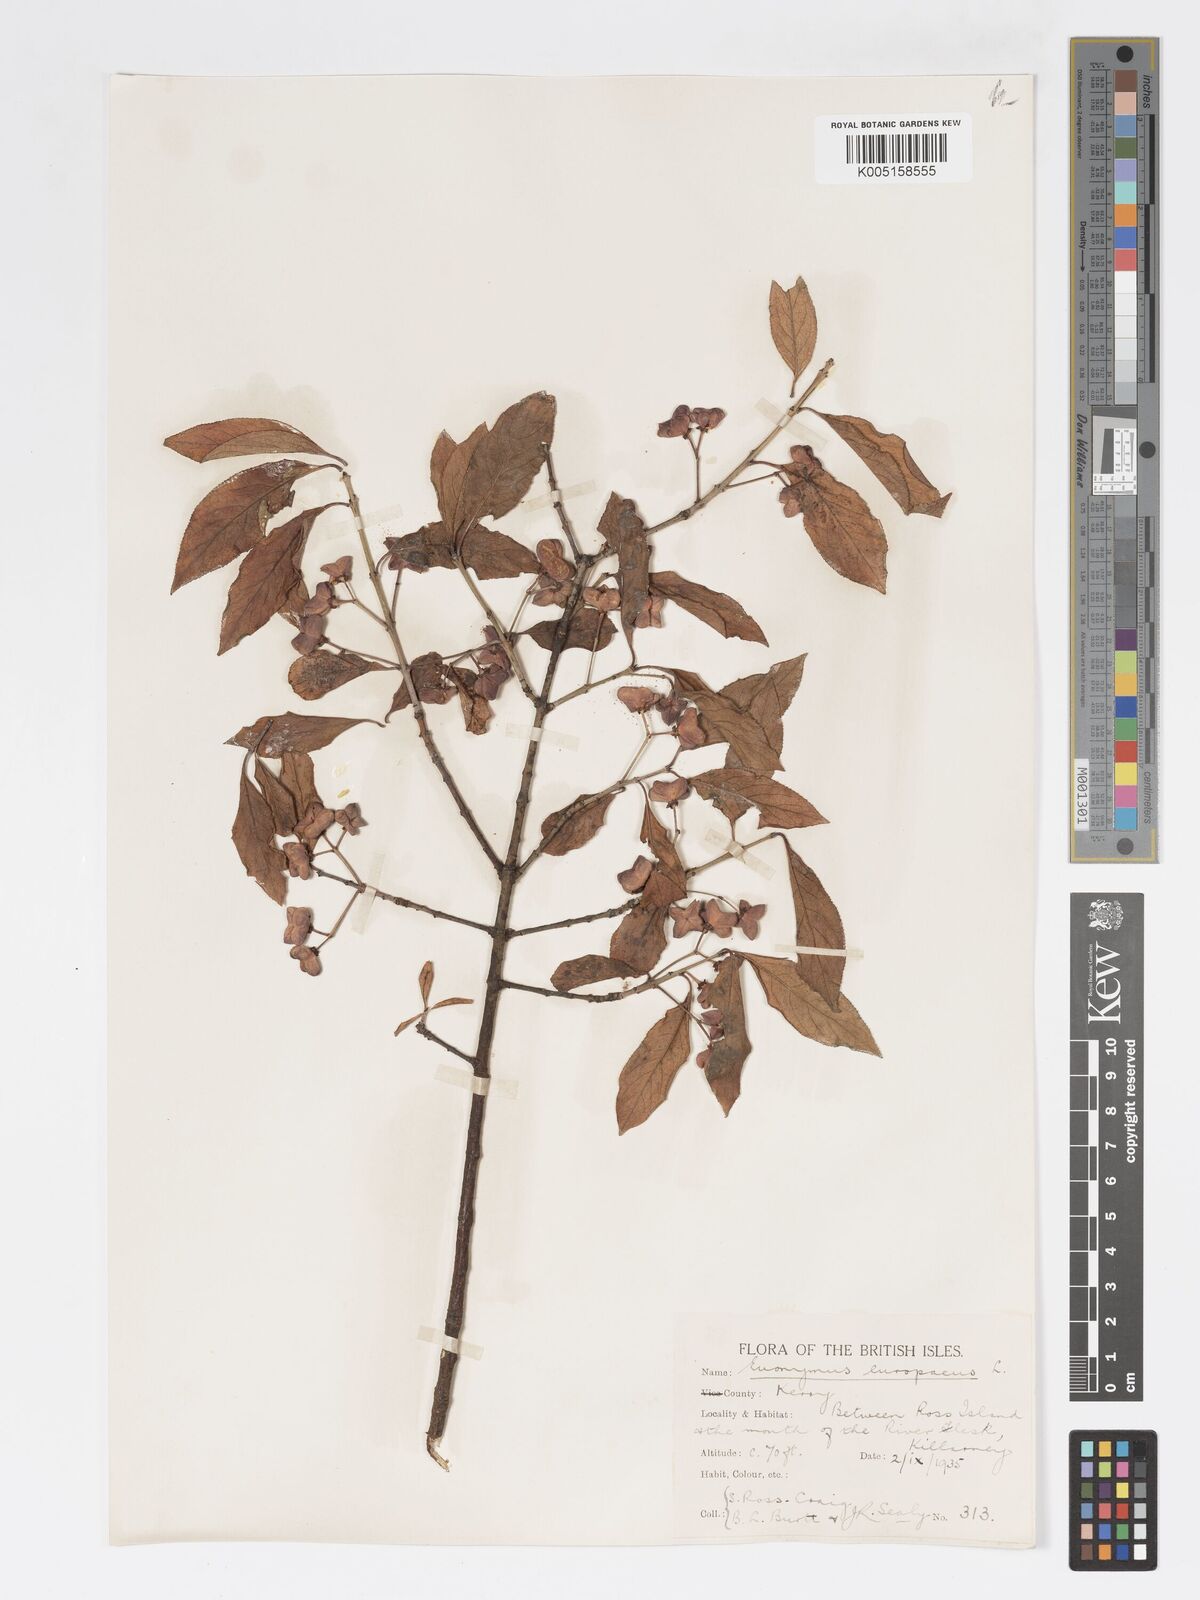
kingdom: Plantae
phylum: Tracheophyta
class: Magnoliopsida
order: Celastrales
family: Celastraceae
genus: Euonymus
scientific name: Euonymus europaeus
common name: Spindle
